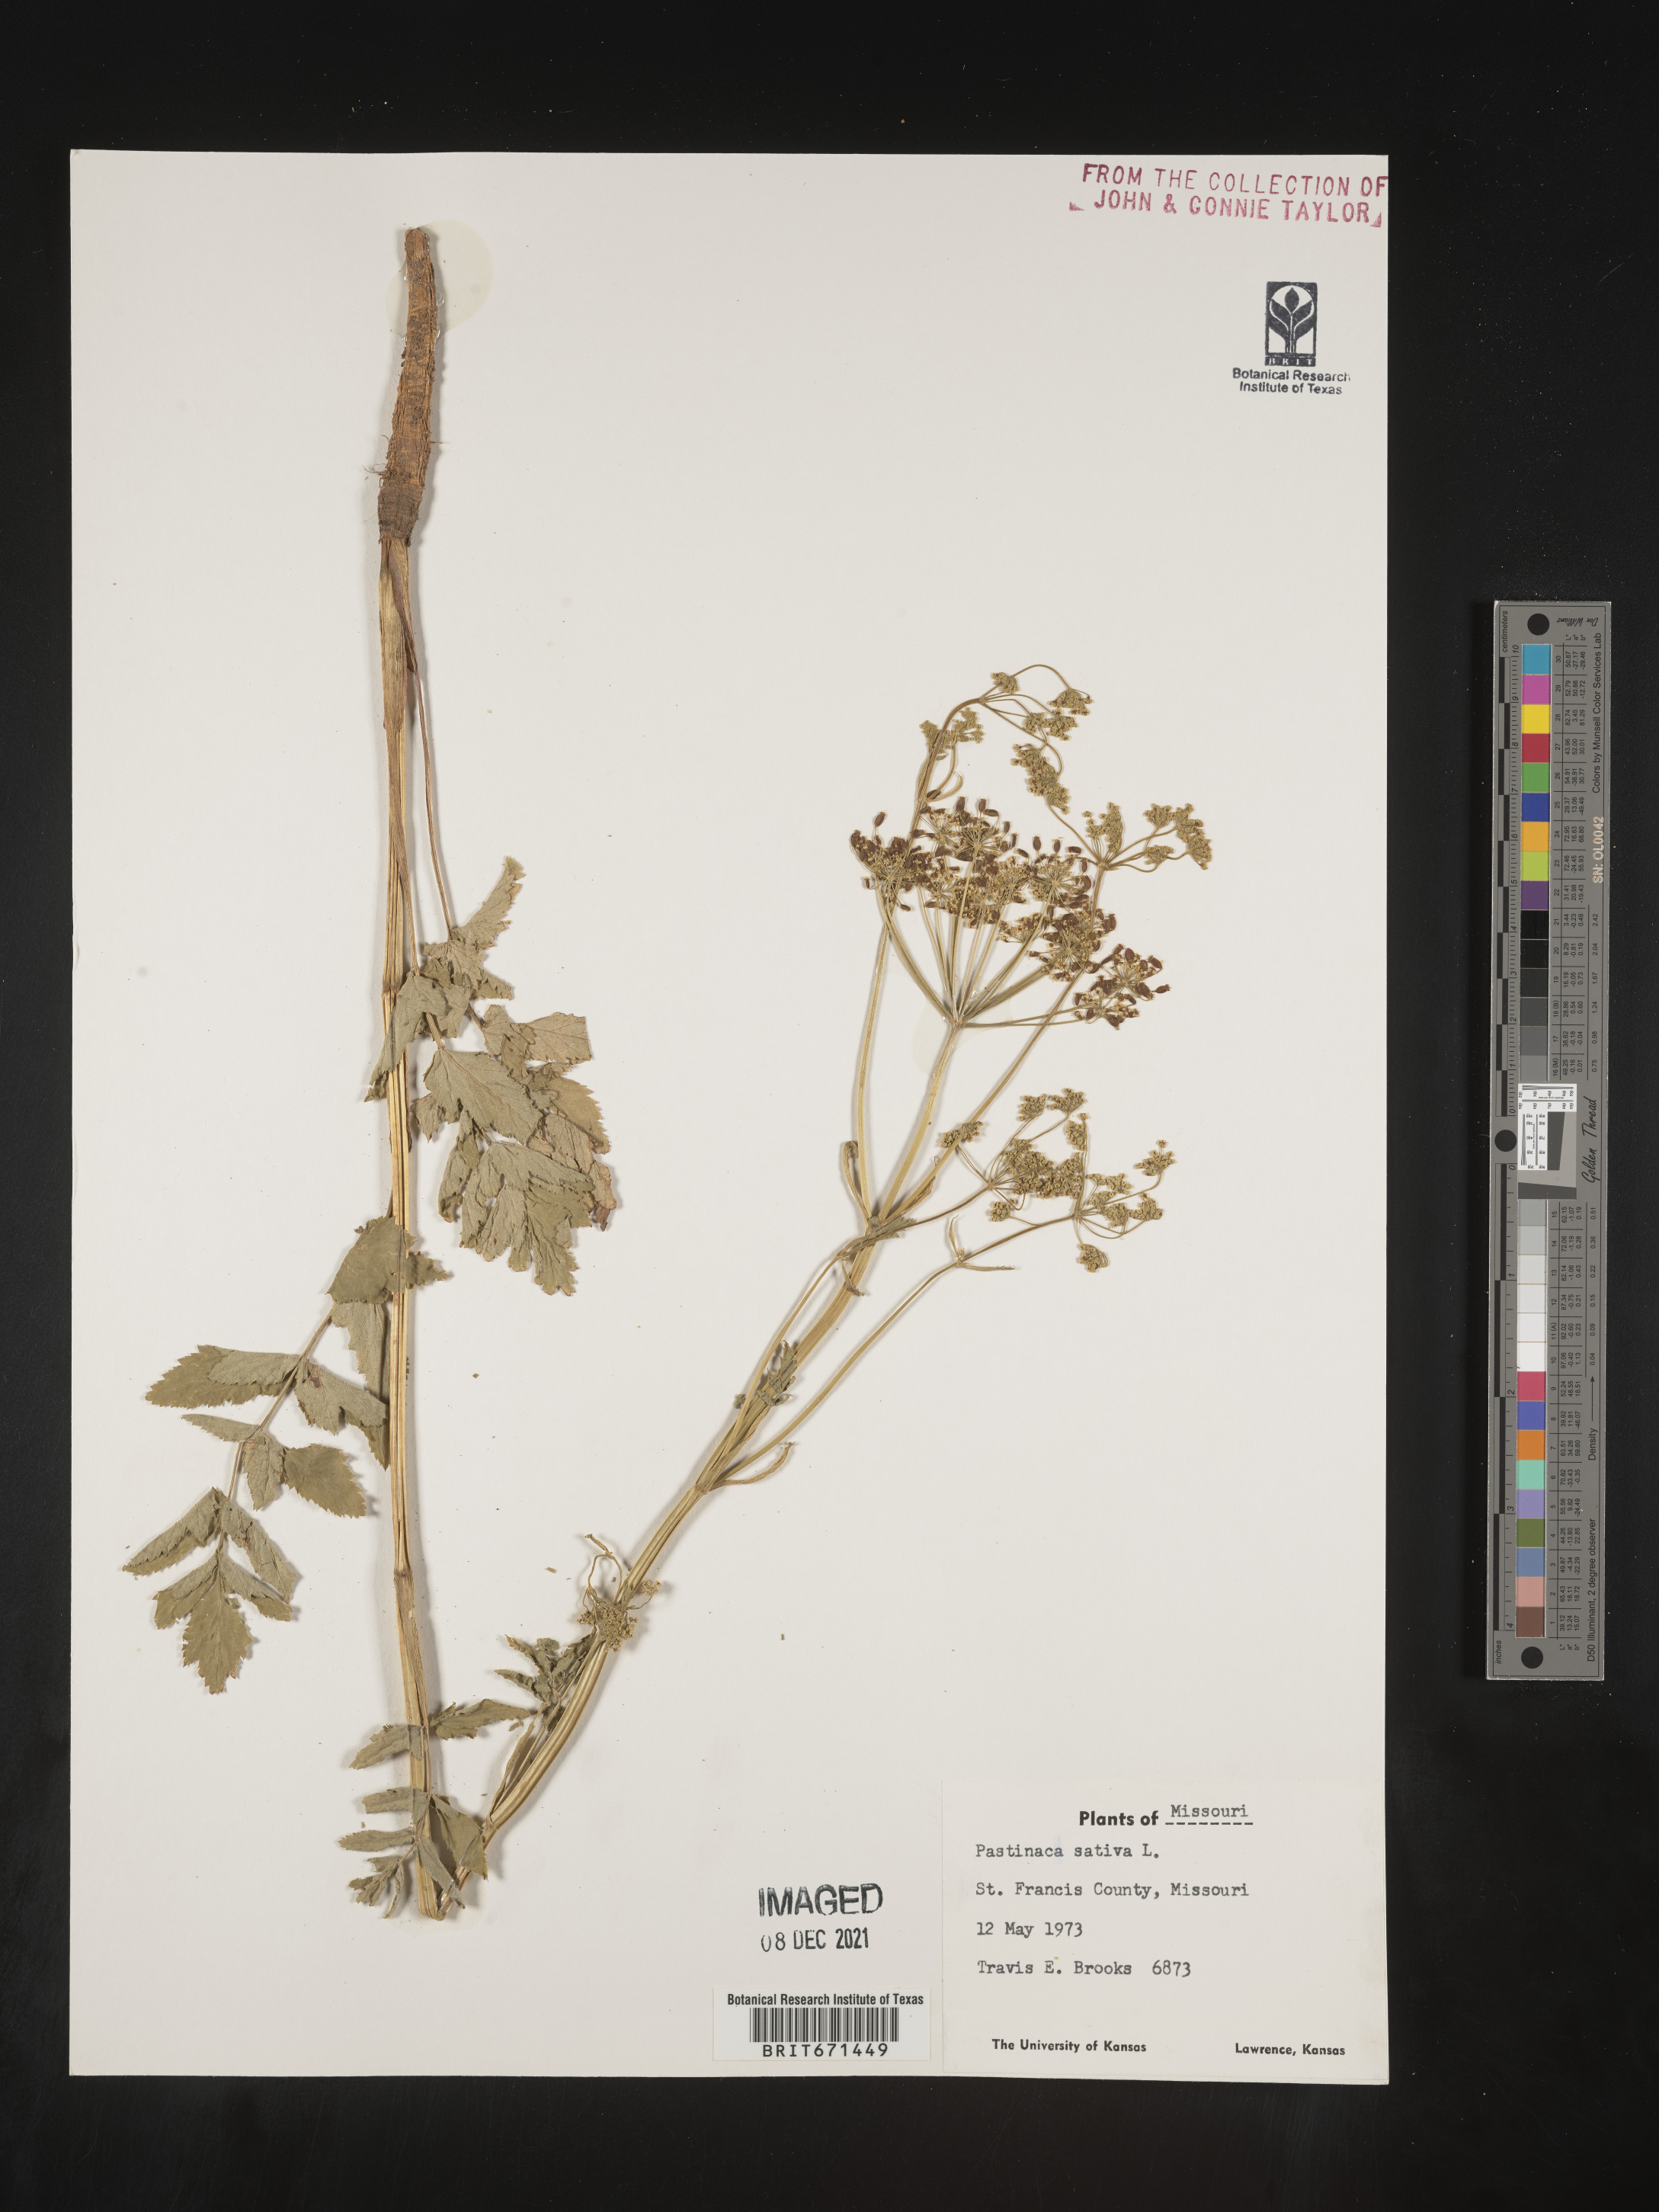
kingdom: Plantae
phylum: Tracheophyta
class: Magnoliopsida
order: Apiales
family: Apiaceae
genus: Pastinaca
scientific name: Pastinaca
